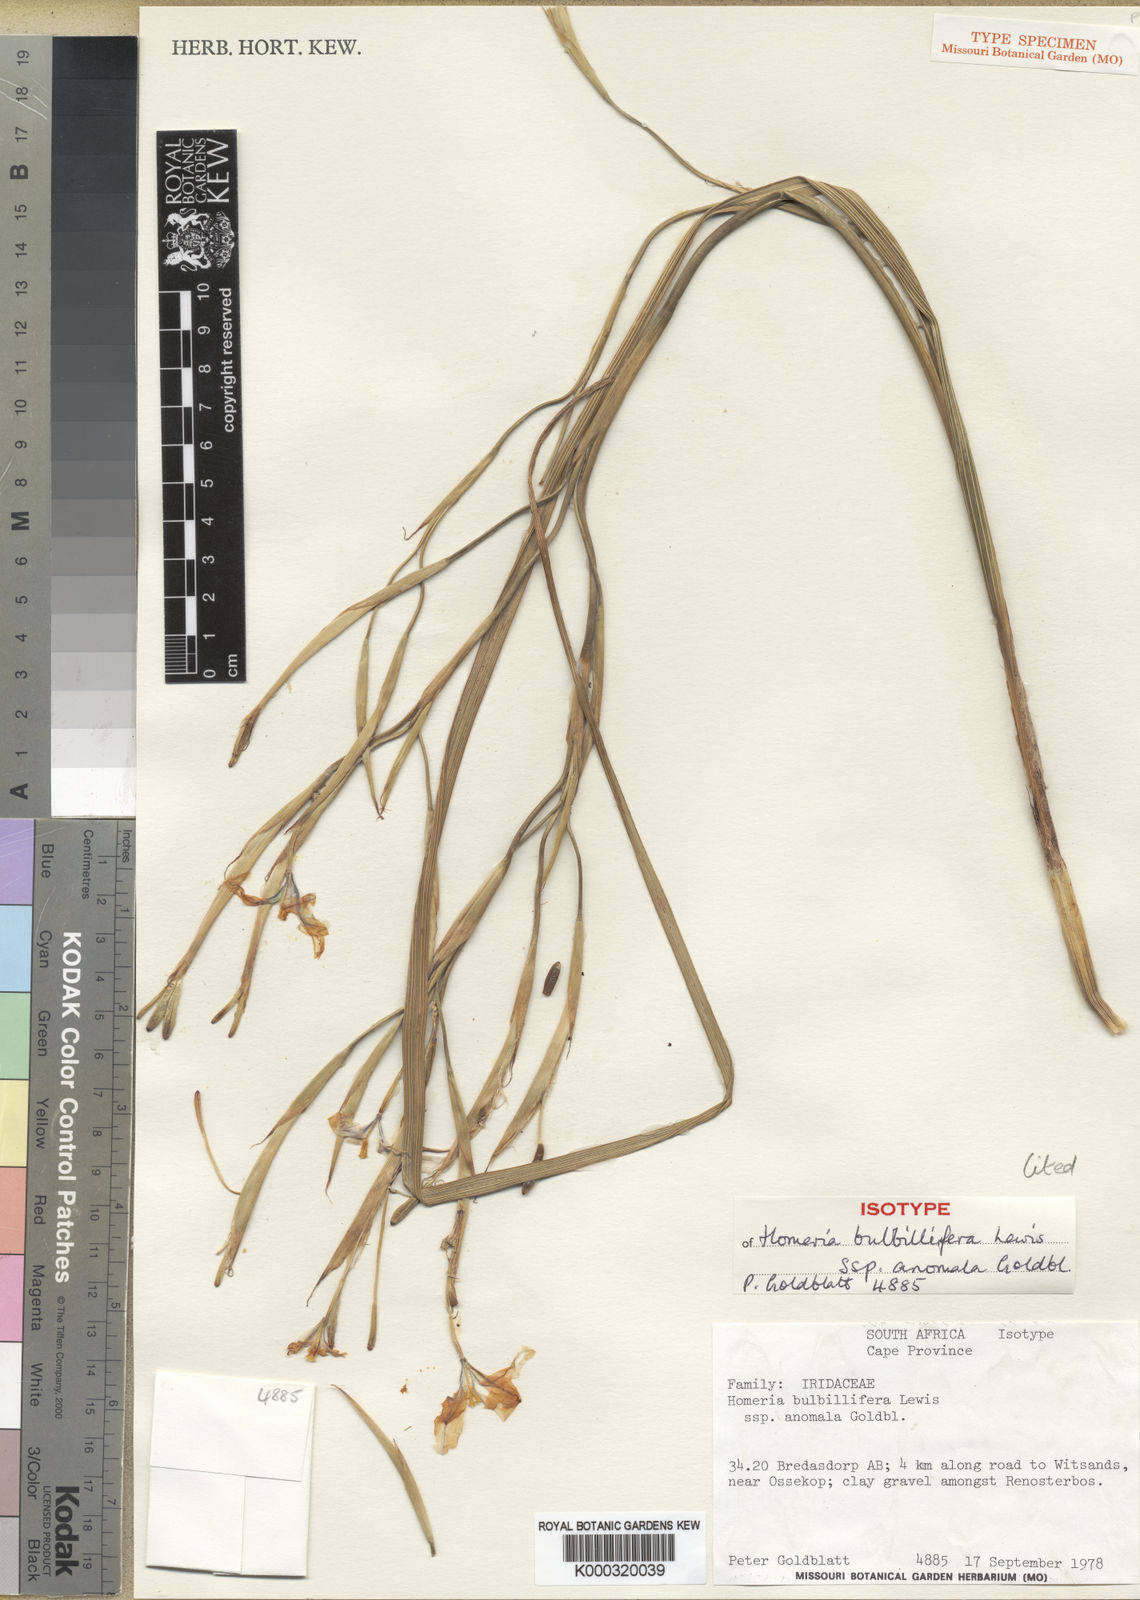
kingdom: Plantae
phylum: Tracheophyta
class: Liliopsida
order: Asparagales
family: Iridaceae
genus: Moraea
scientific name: Moraea bulbillifera
